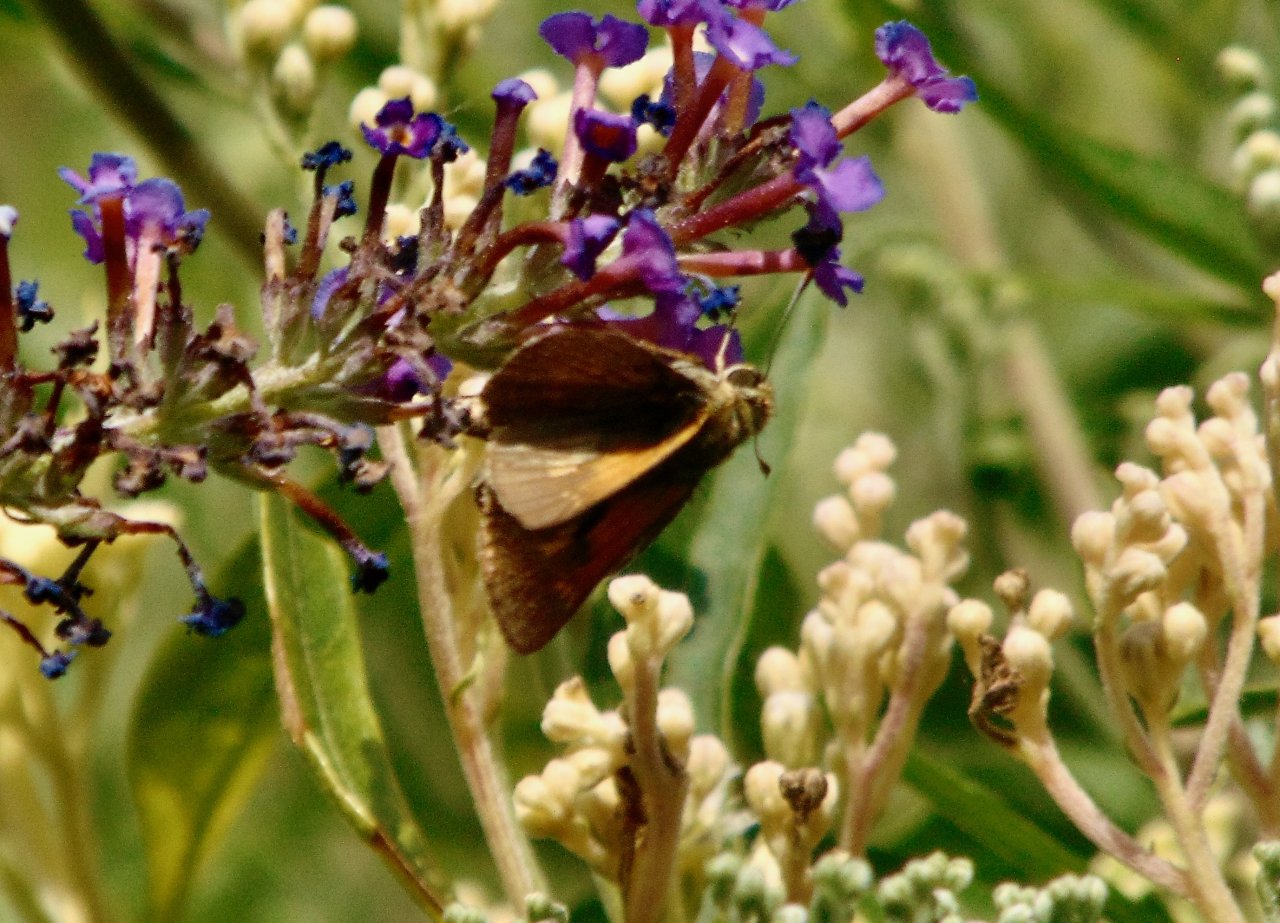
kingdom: Animalia
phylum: Arthropoda
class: Insecta
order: Lepidoptera
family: Hesperiidae
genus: Polites
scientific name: Polites themistocles
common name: Tawny-edged Skipper
